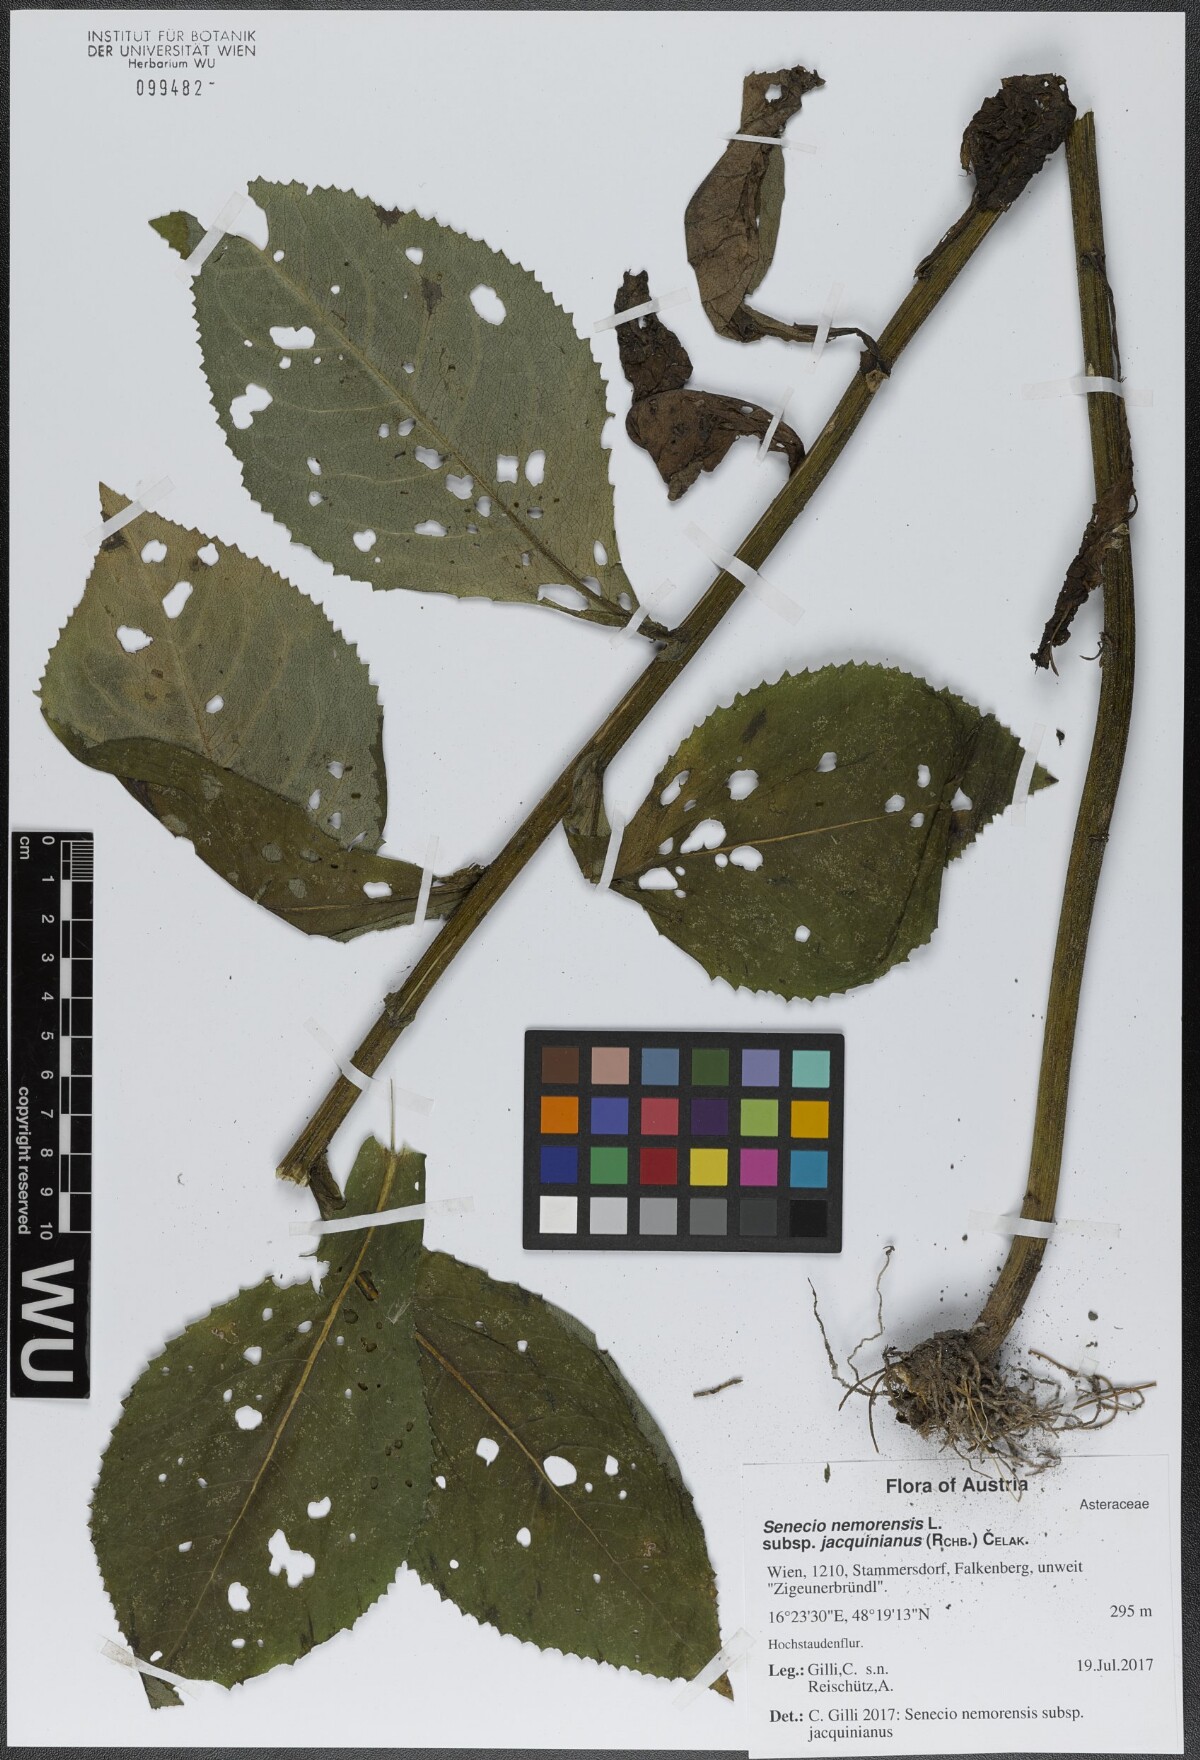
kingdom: Plantae
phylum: Tracheophyta
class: Magnoliopsida
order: Asterales
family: Asteraceae
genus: Senecio
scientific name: Senecio germanicus
